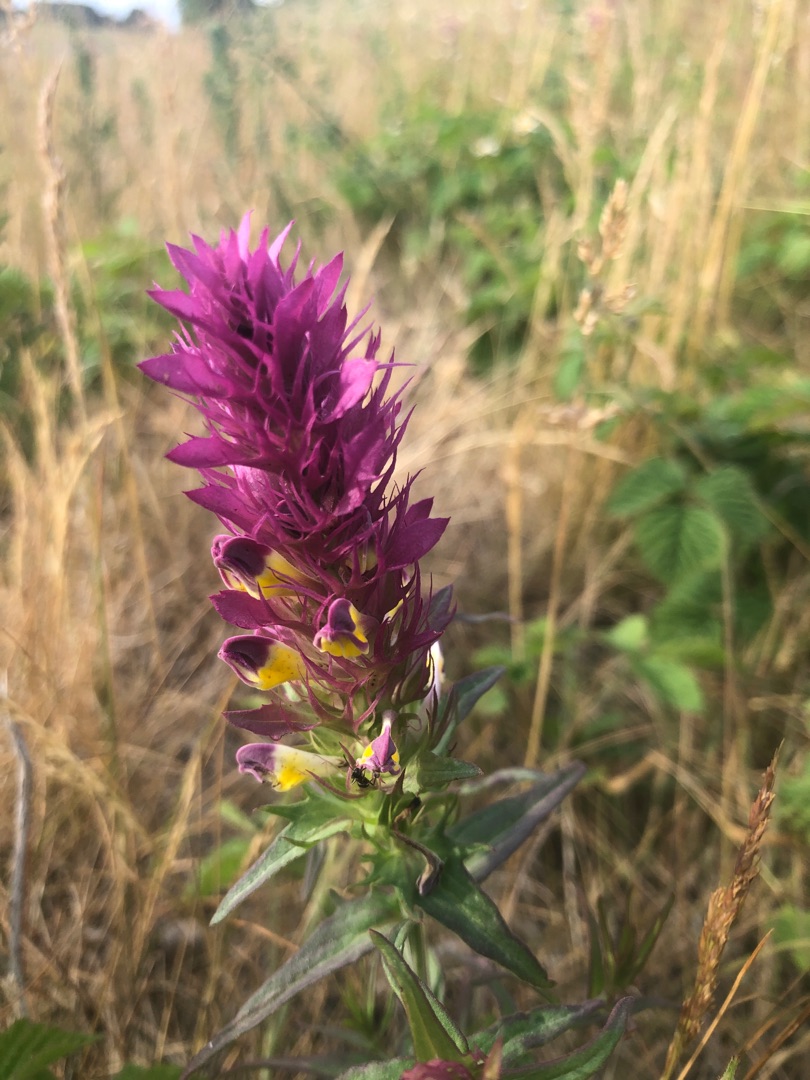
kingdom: Plantae
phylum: Tracheophyta
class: Magnoliopsida
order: Lamiales
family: Orobanchaceae
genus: Melampyrum
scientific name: Melampyrum arvense
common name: Ager-kohvede
